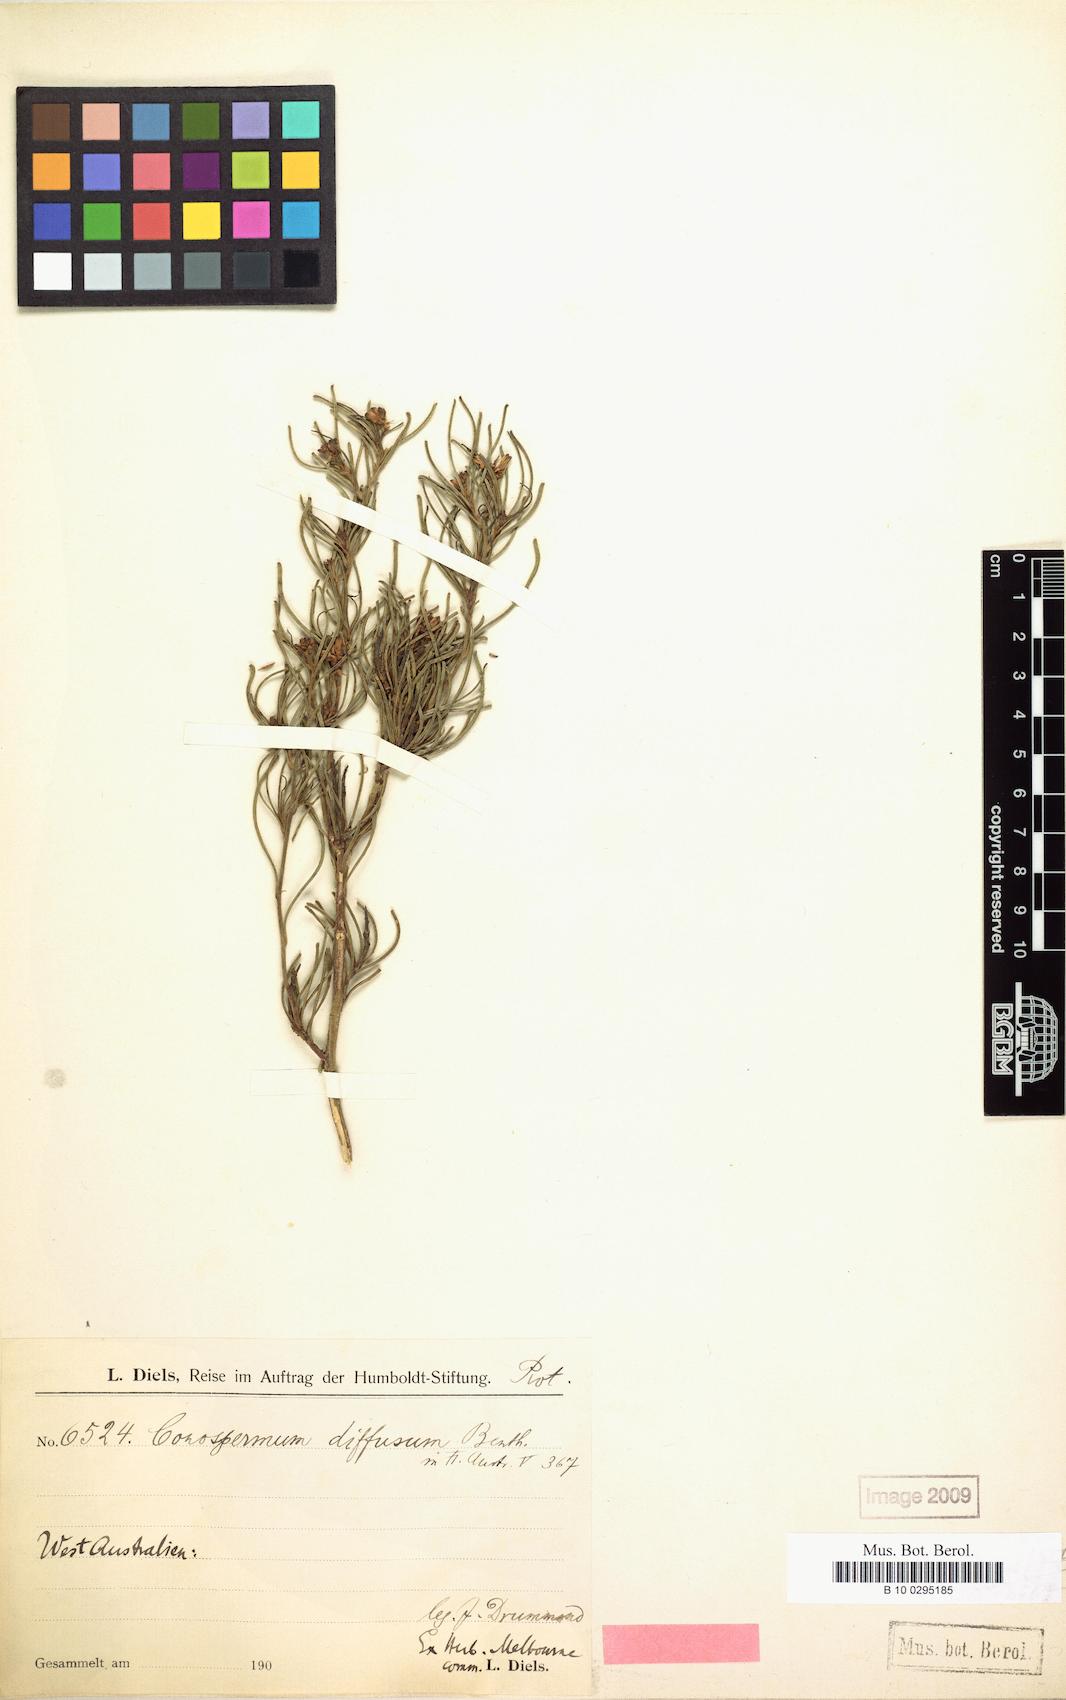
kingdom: Plantae
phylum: Tracheophyta
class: Magnoliopsida
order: Proteales
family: Proteaceae
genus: Conospermum
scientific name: Conospermum nervosum
